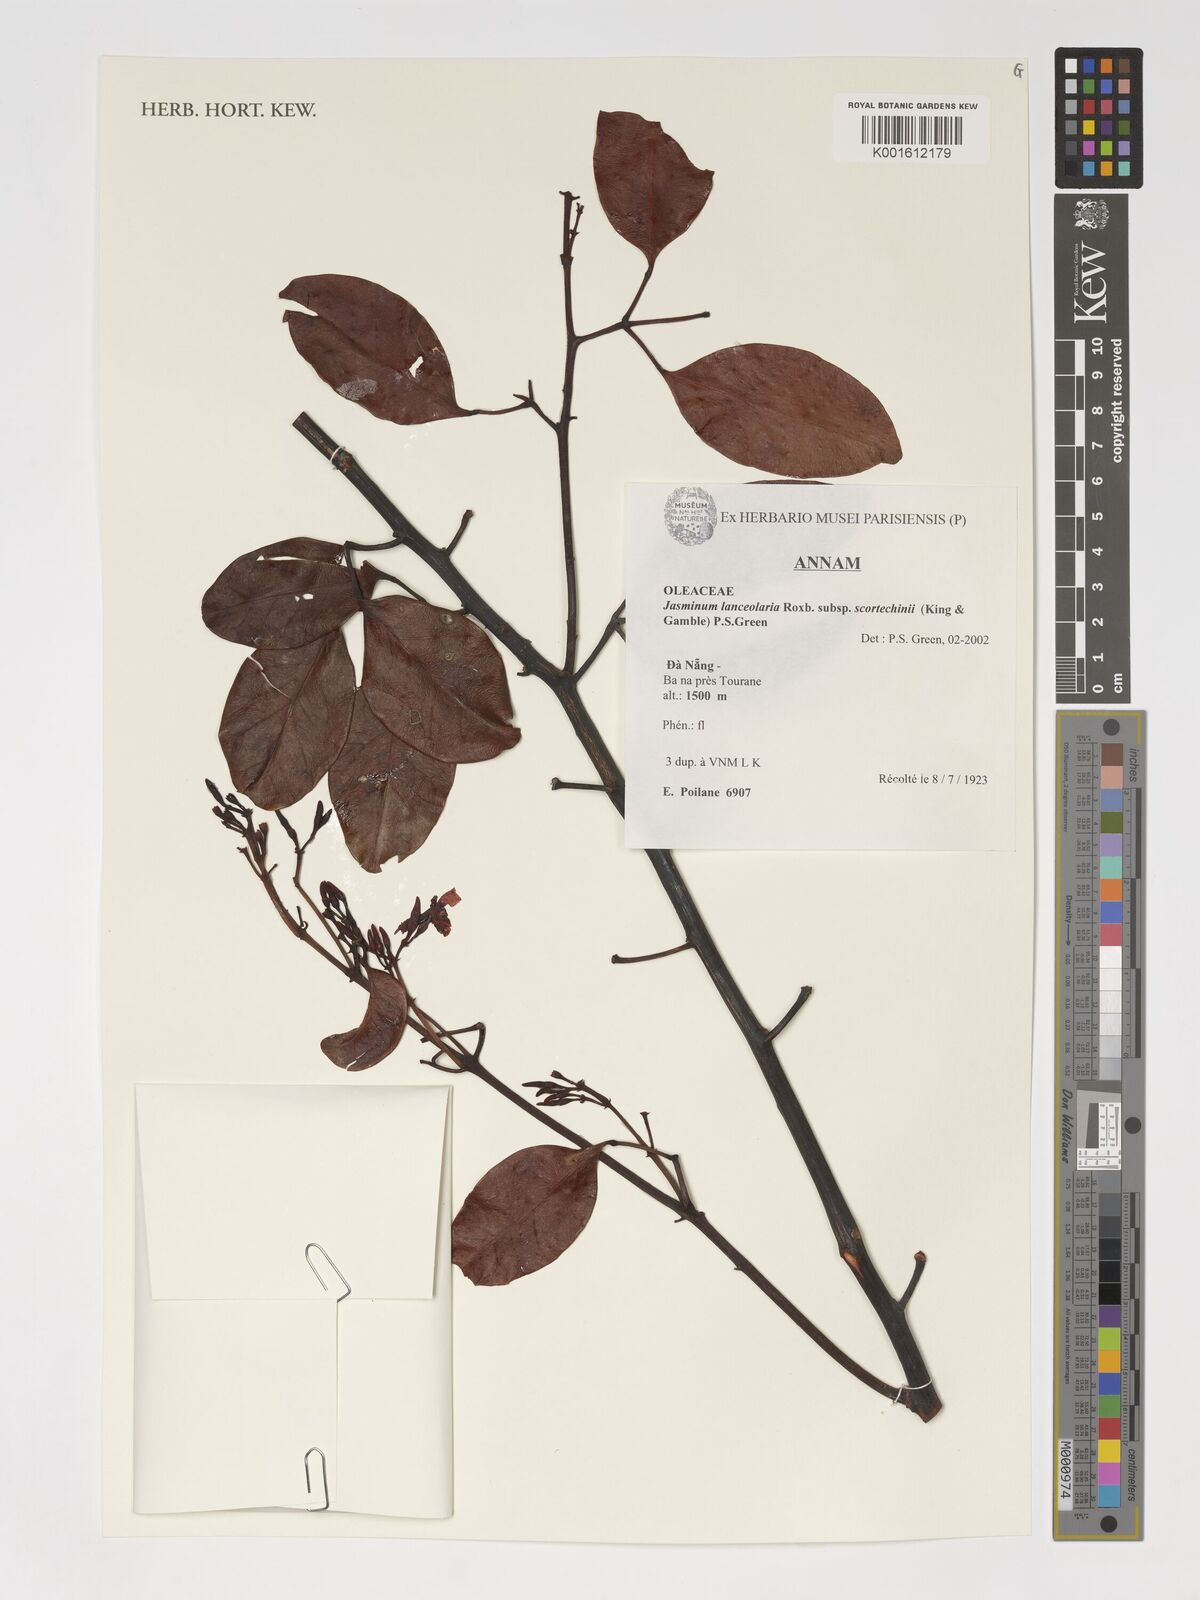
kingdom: Plantae
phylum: Tracheophyta
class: Magnoliopsida
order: Lamiales
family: Oleaceae
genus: Jasminum
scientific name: Jasminum lanceolaria
